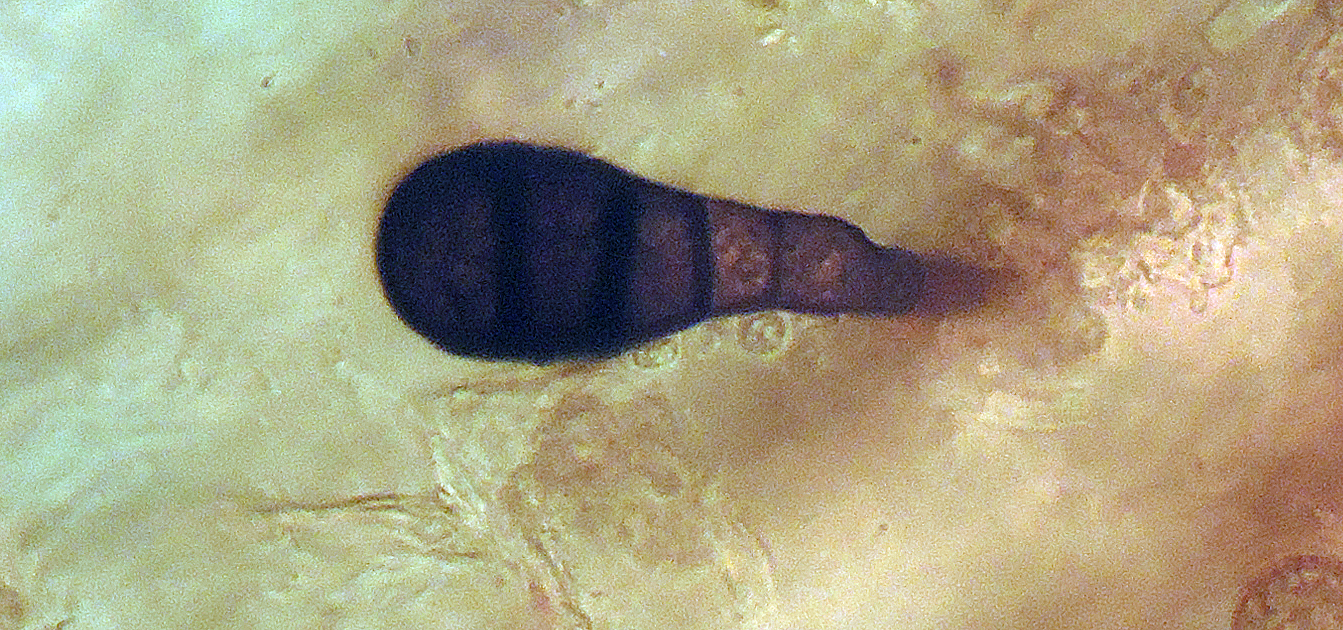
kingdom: Fungi
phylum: Ascomycota
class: Dothideomycetes
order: Pleosporales
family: Melanommataceae
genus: Pleotrichocladium
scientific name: Pleotrichocladium opacum
